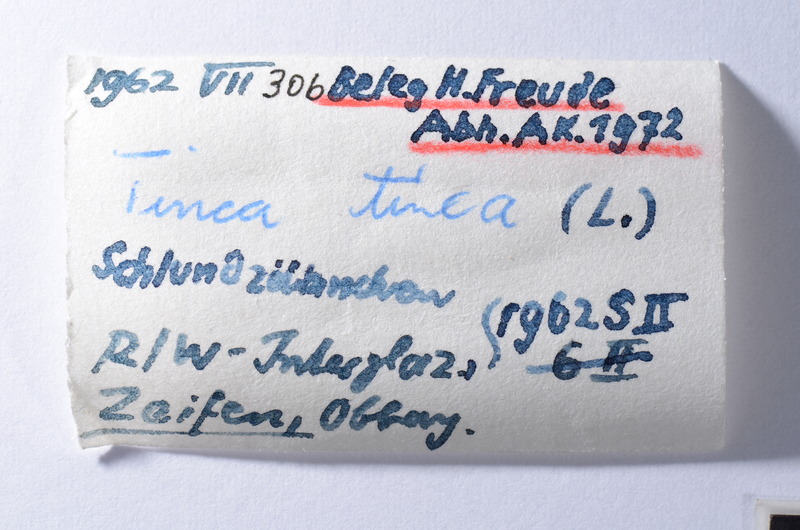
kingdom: Animalia
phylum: Chordata
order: Cypriniformes
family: Cyprinidae
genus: Tinca
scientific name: Tinca tinca
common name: Tench
